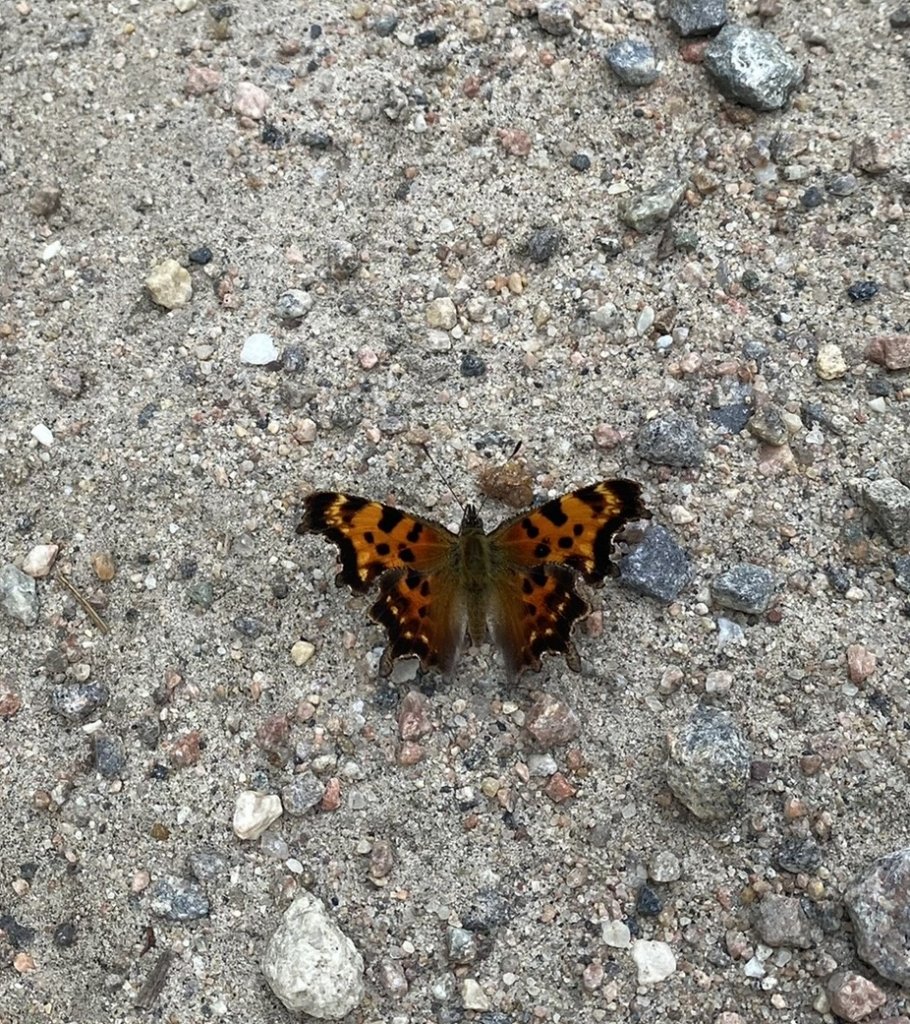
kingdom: Animalia
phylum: Arthropoda
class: Insecta
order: Lepidoptera
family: Nymphalidae
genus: Polygonia
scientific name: Polygonia faunus
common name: Green Comma
